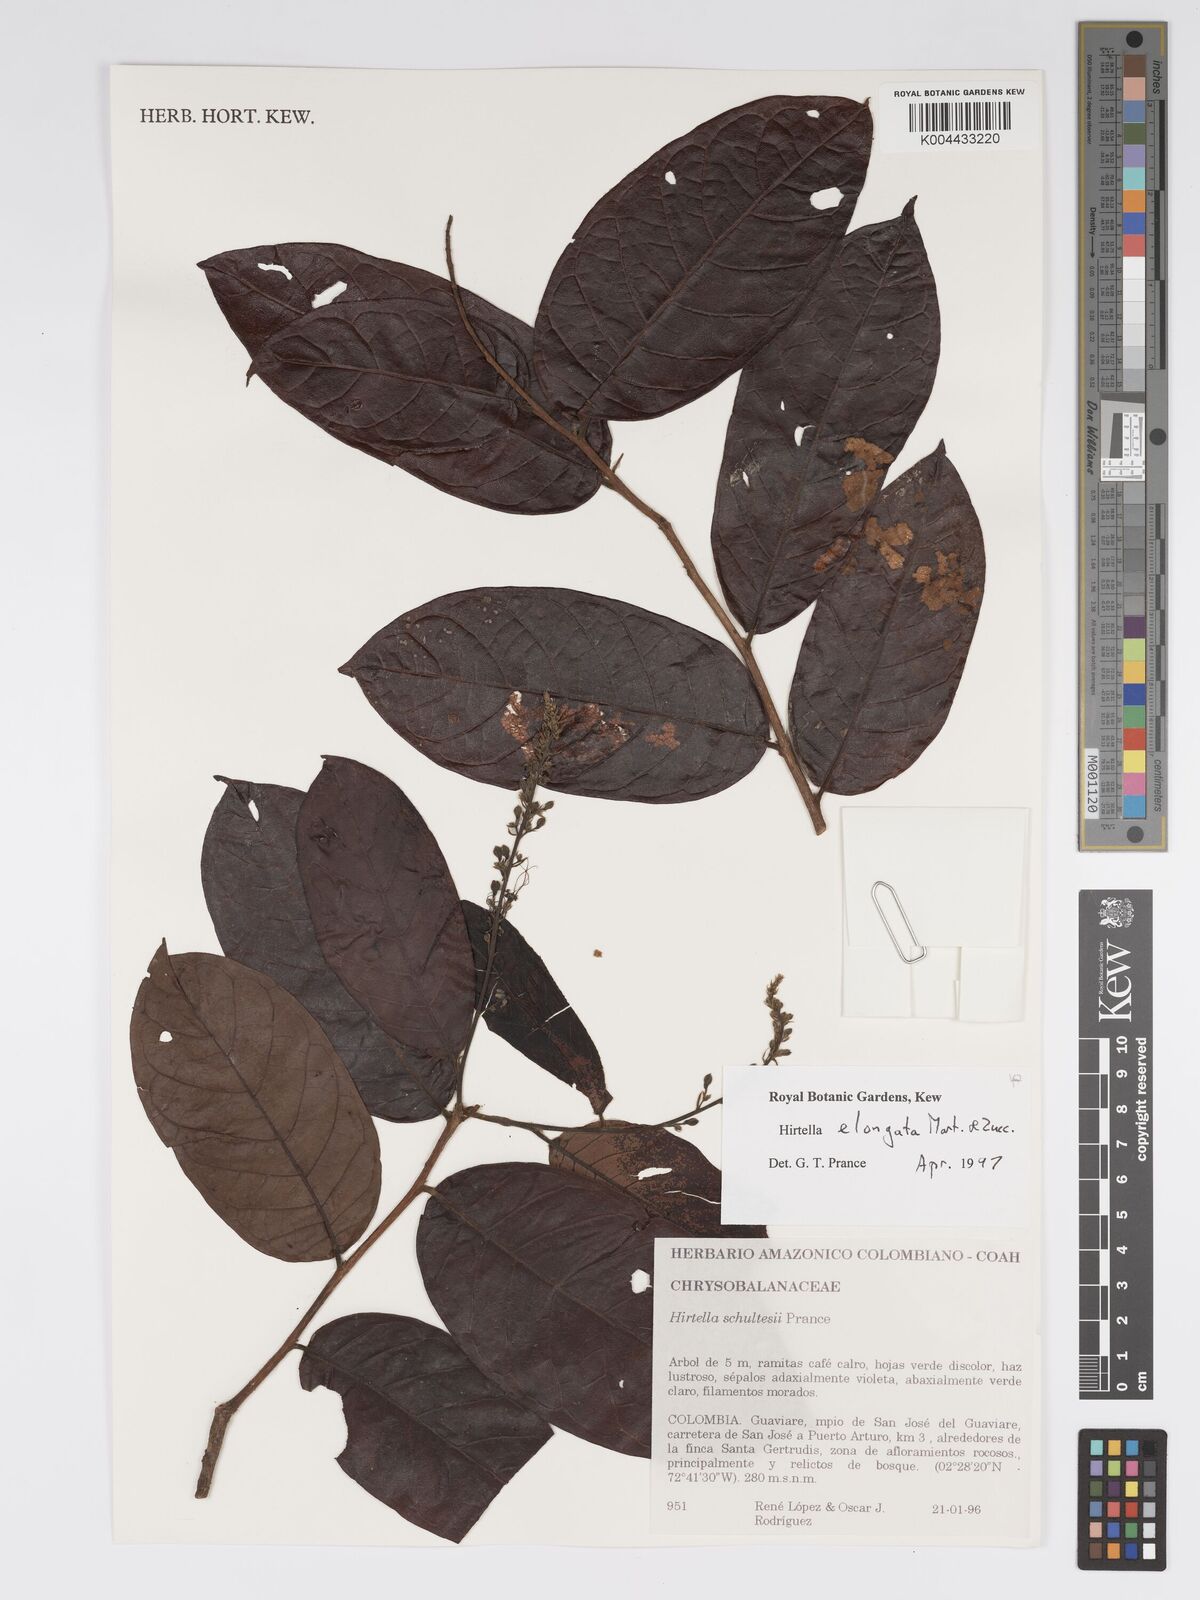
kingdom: Plantae
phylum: Tracheophyta
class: Magnoliopsida
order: Malpighiales
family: Chrysobalanaceae
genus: Hirtella
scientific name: Hirtella elongata
